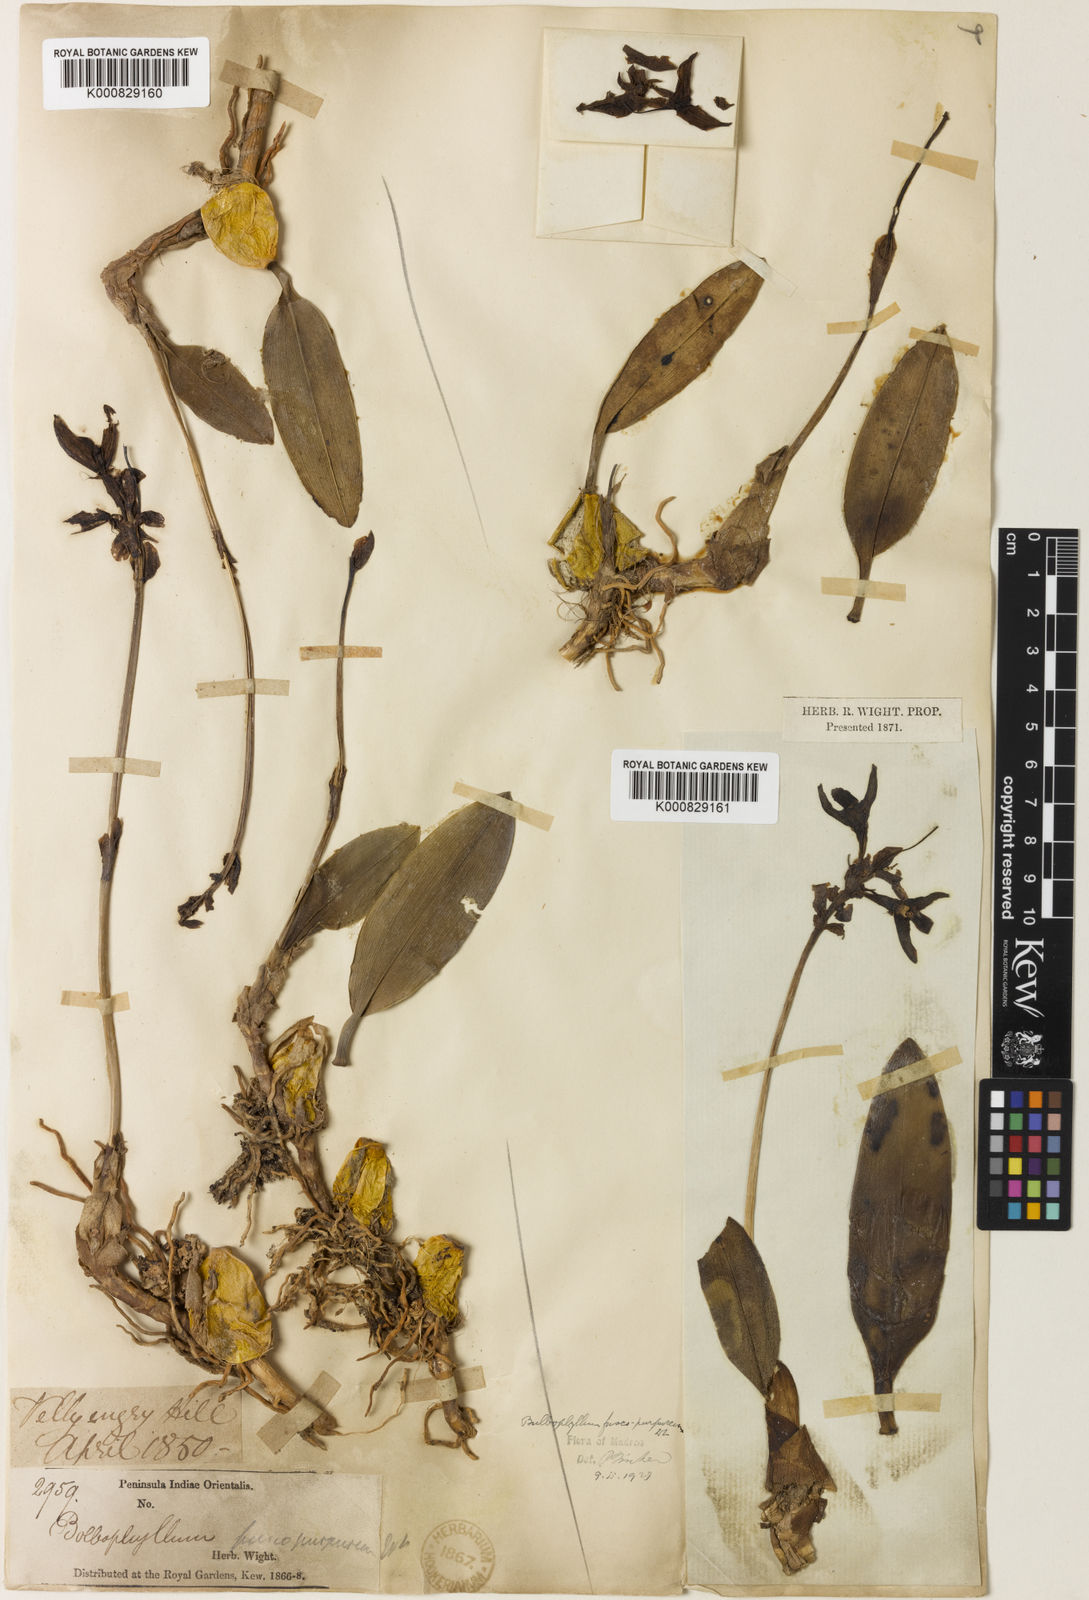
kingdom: Plantae
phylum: Tracheophyta
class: Liliopsida
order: Asparagales
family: Orchidaceae
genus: Bulbophyllum
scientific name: Bulbophyllum fuscopurpureum
